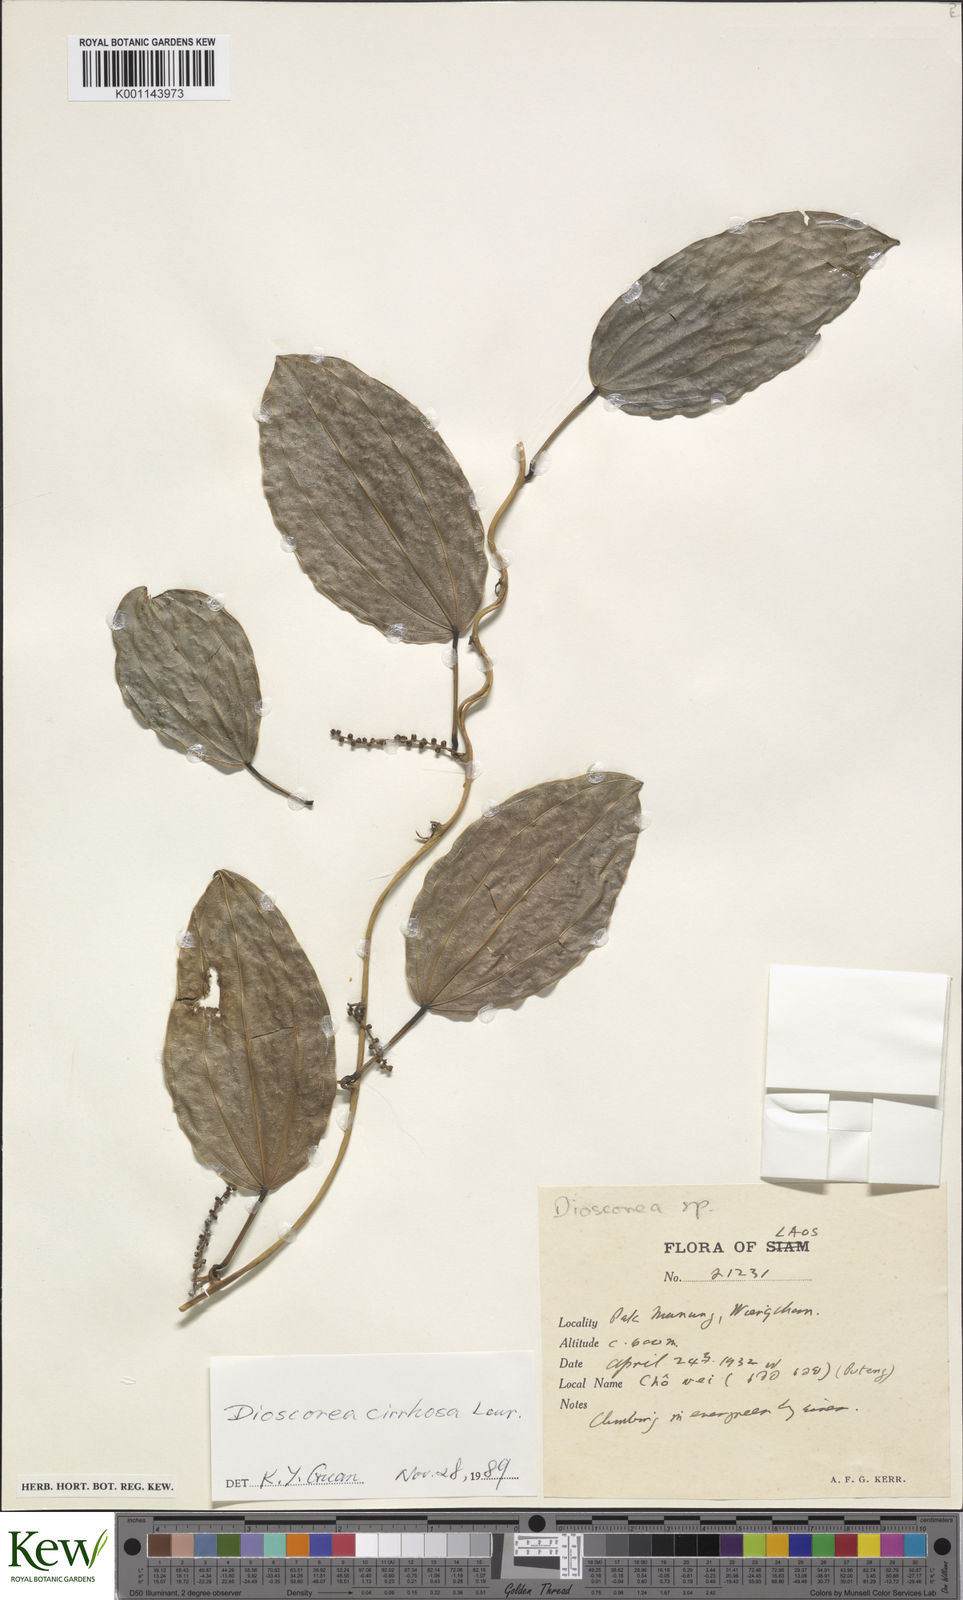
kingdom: Plantae
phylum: Tracheophyta
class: Liliopsida
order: Dioscoreales
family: Dioscoreaceae
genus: Dioscorea
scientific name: Dioscorea cirrhosa
